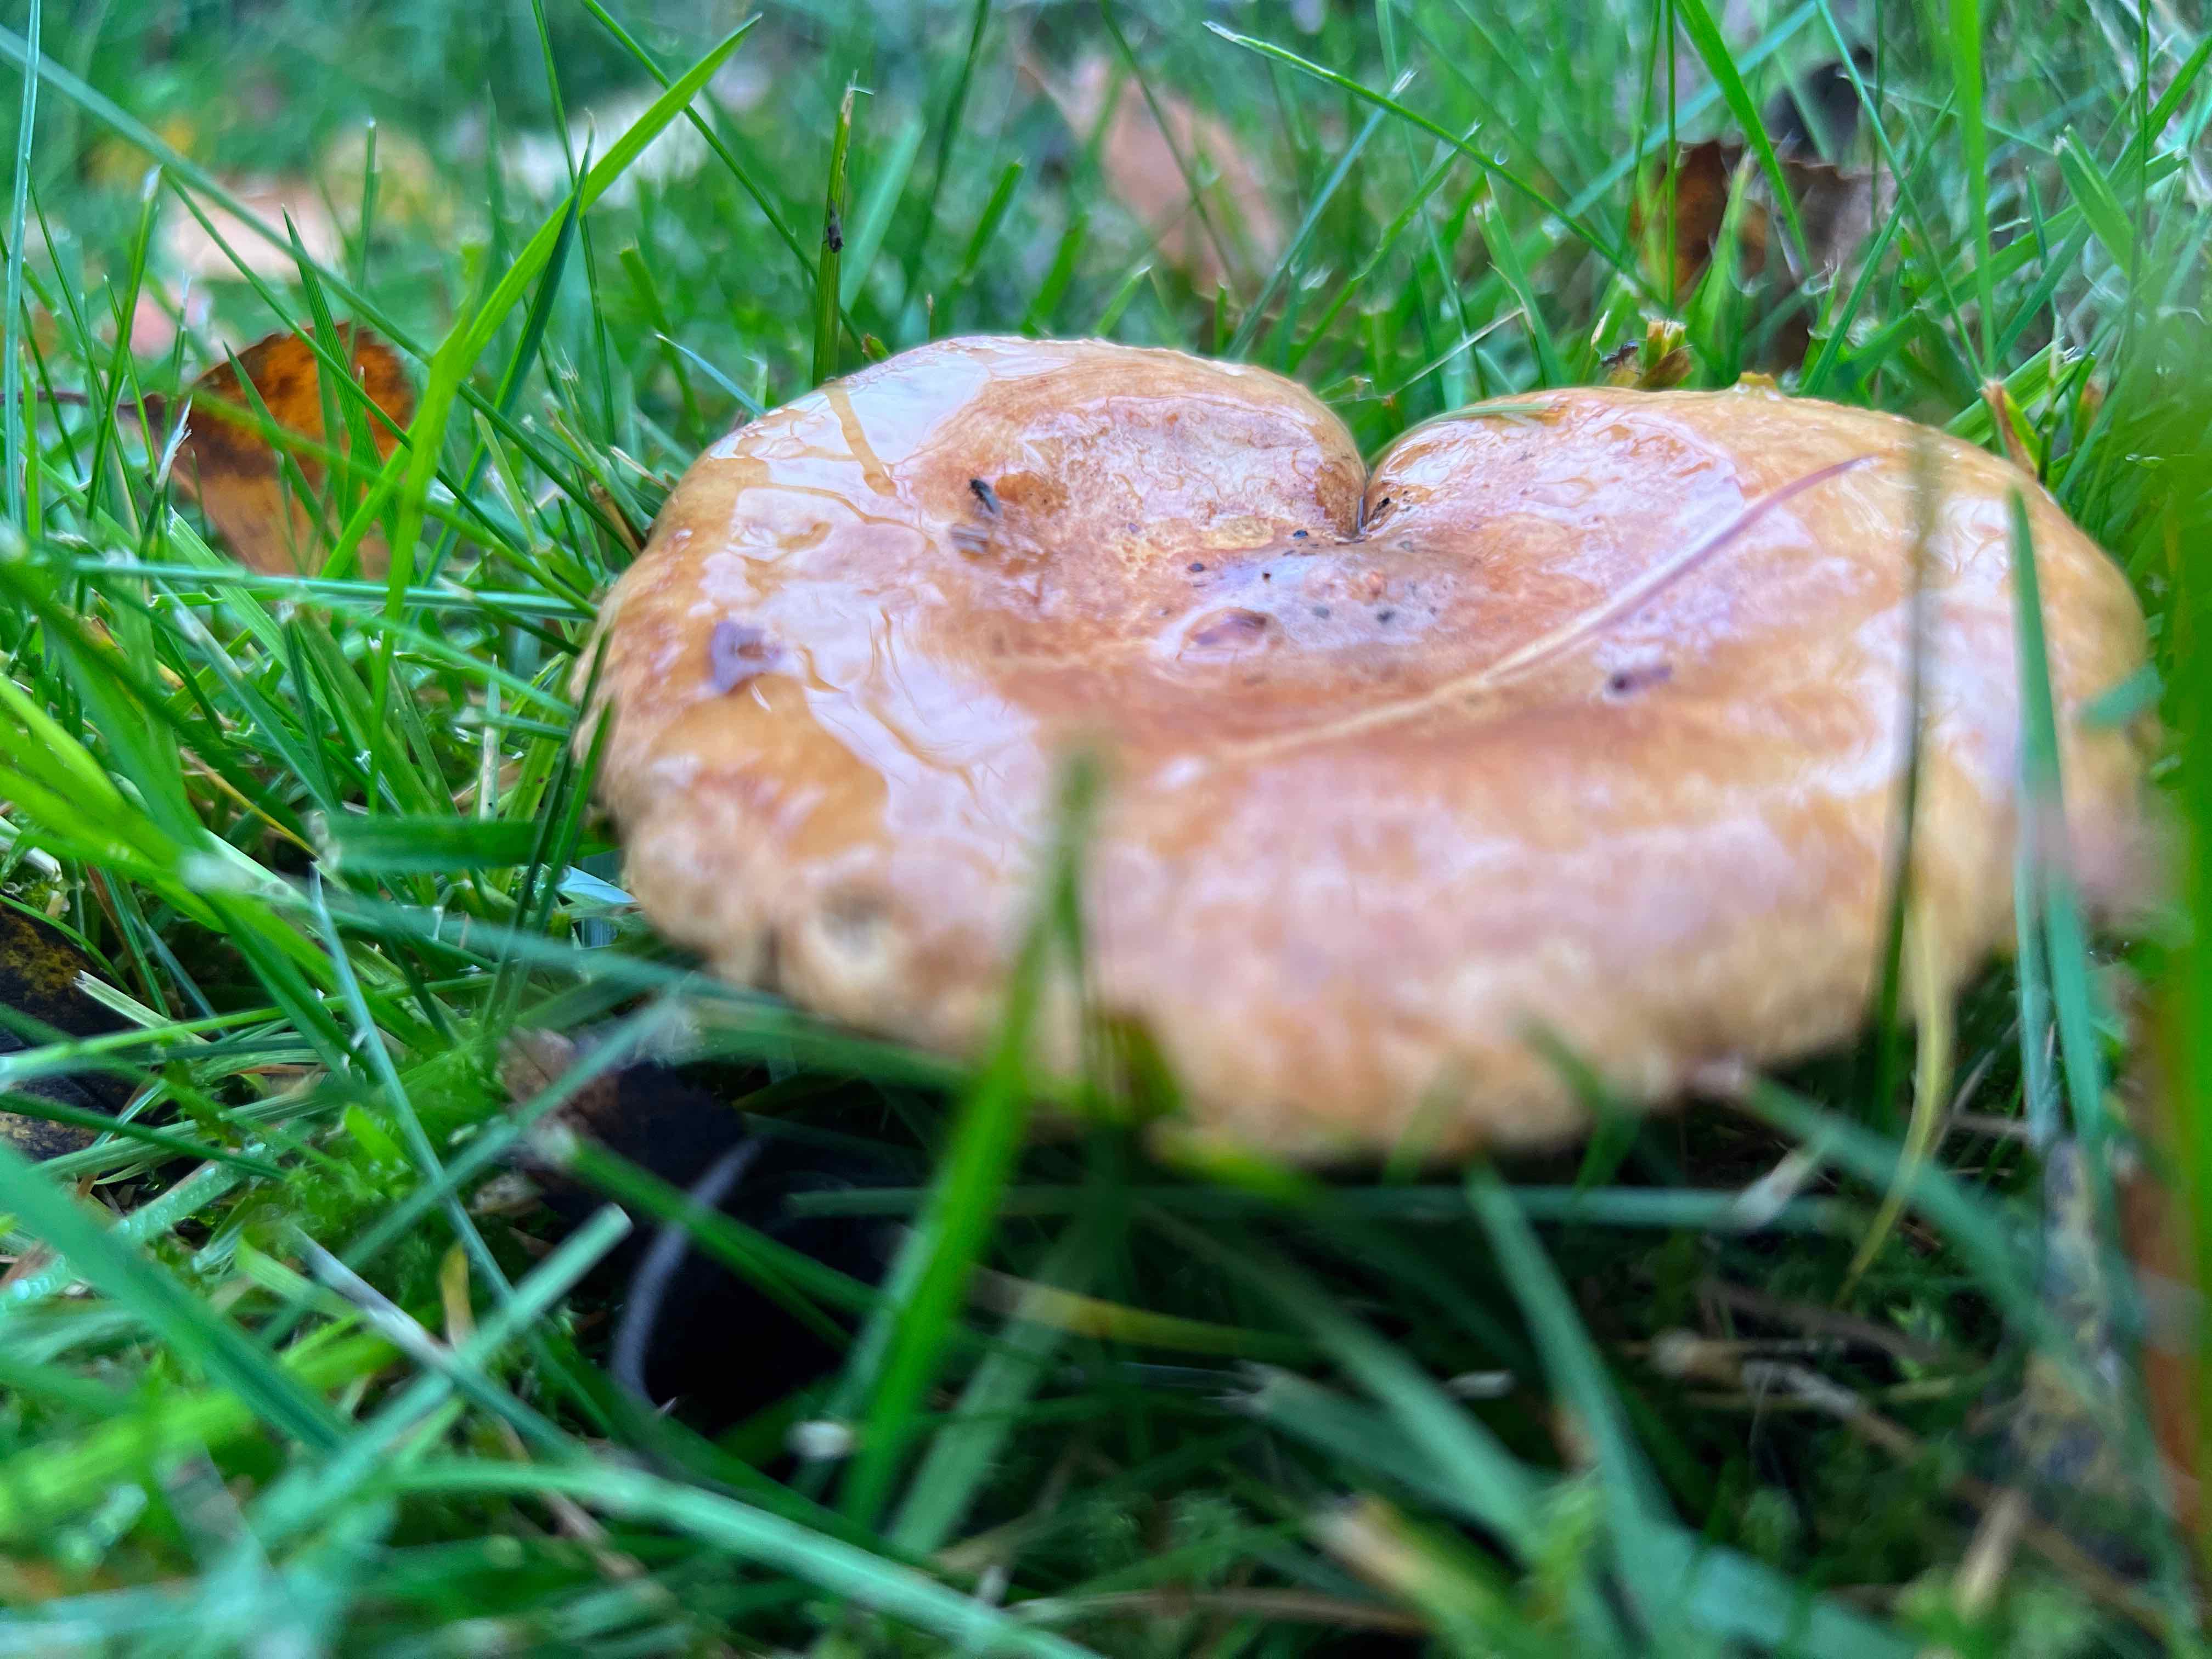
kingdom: Fungi
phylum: Basidiomycota
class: Agaricomycetes
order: Boletales
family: Paxillaceae
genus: Paxillus
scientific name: Paxillus
